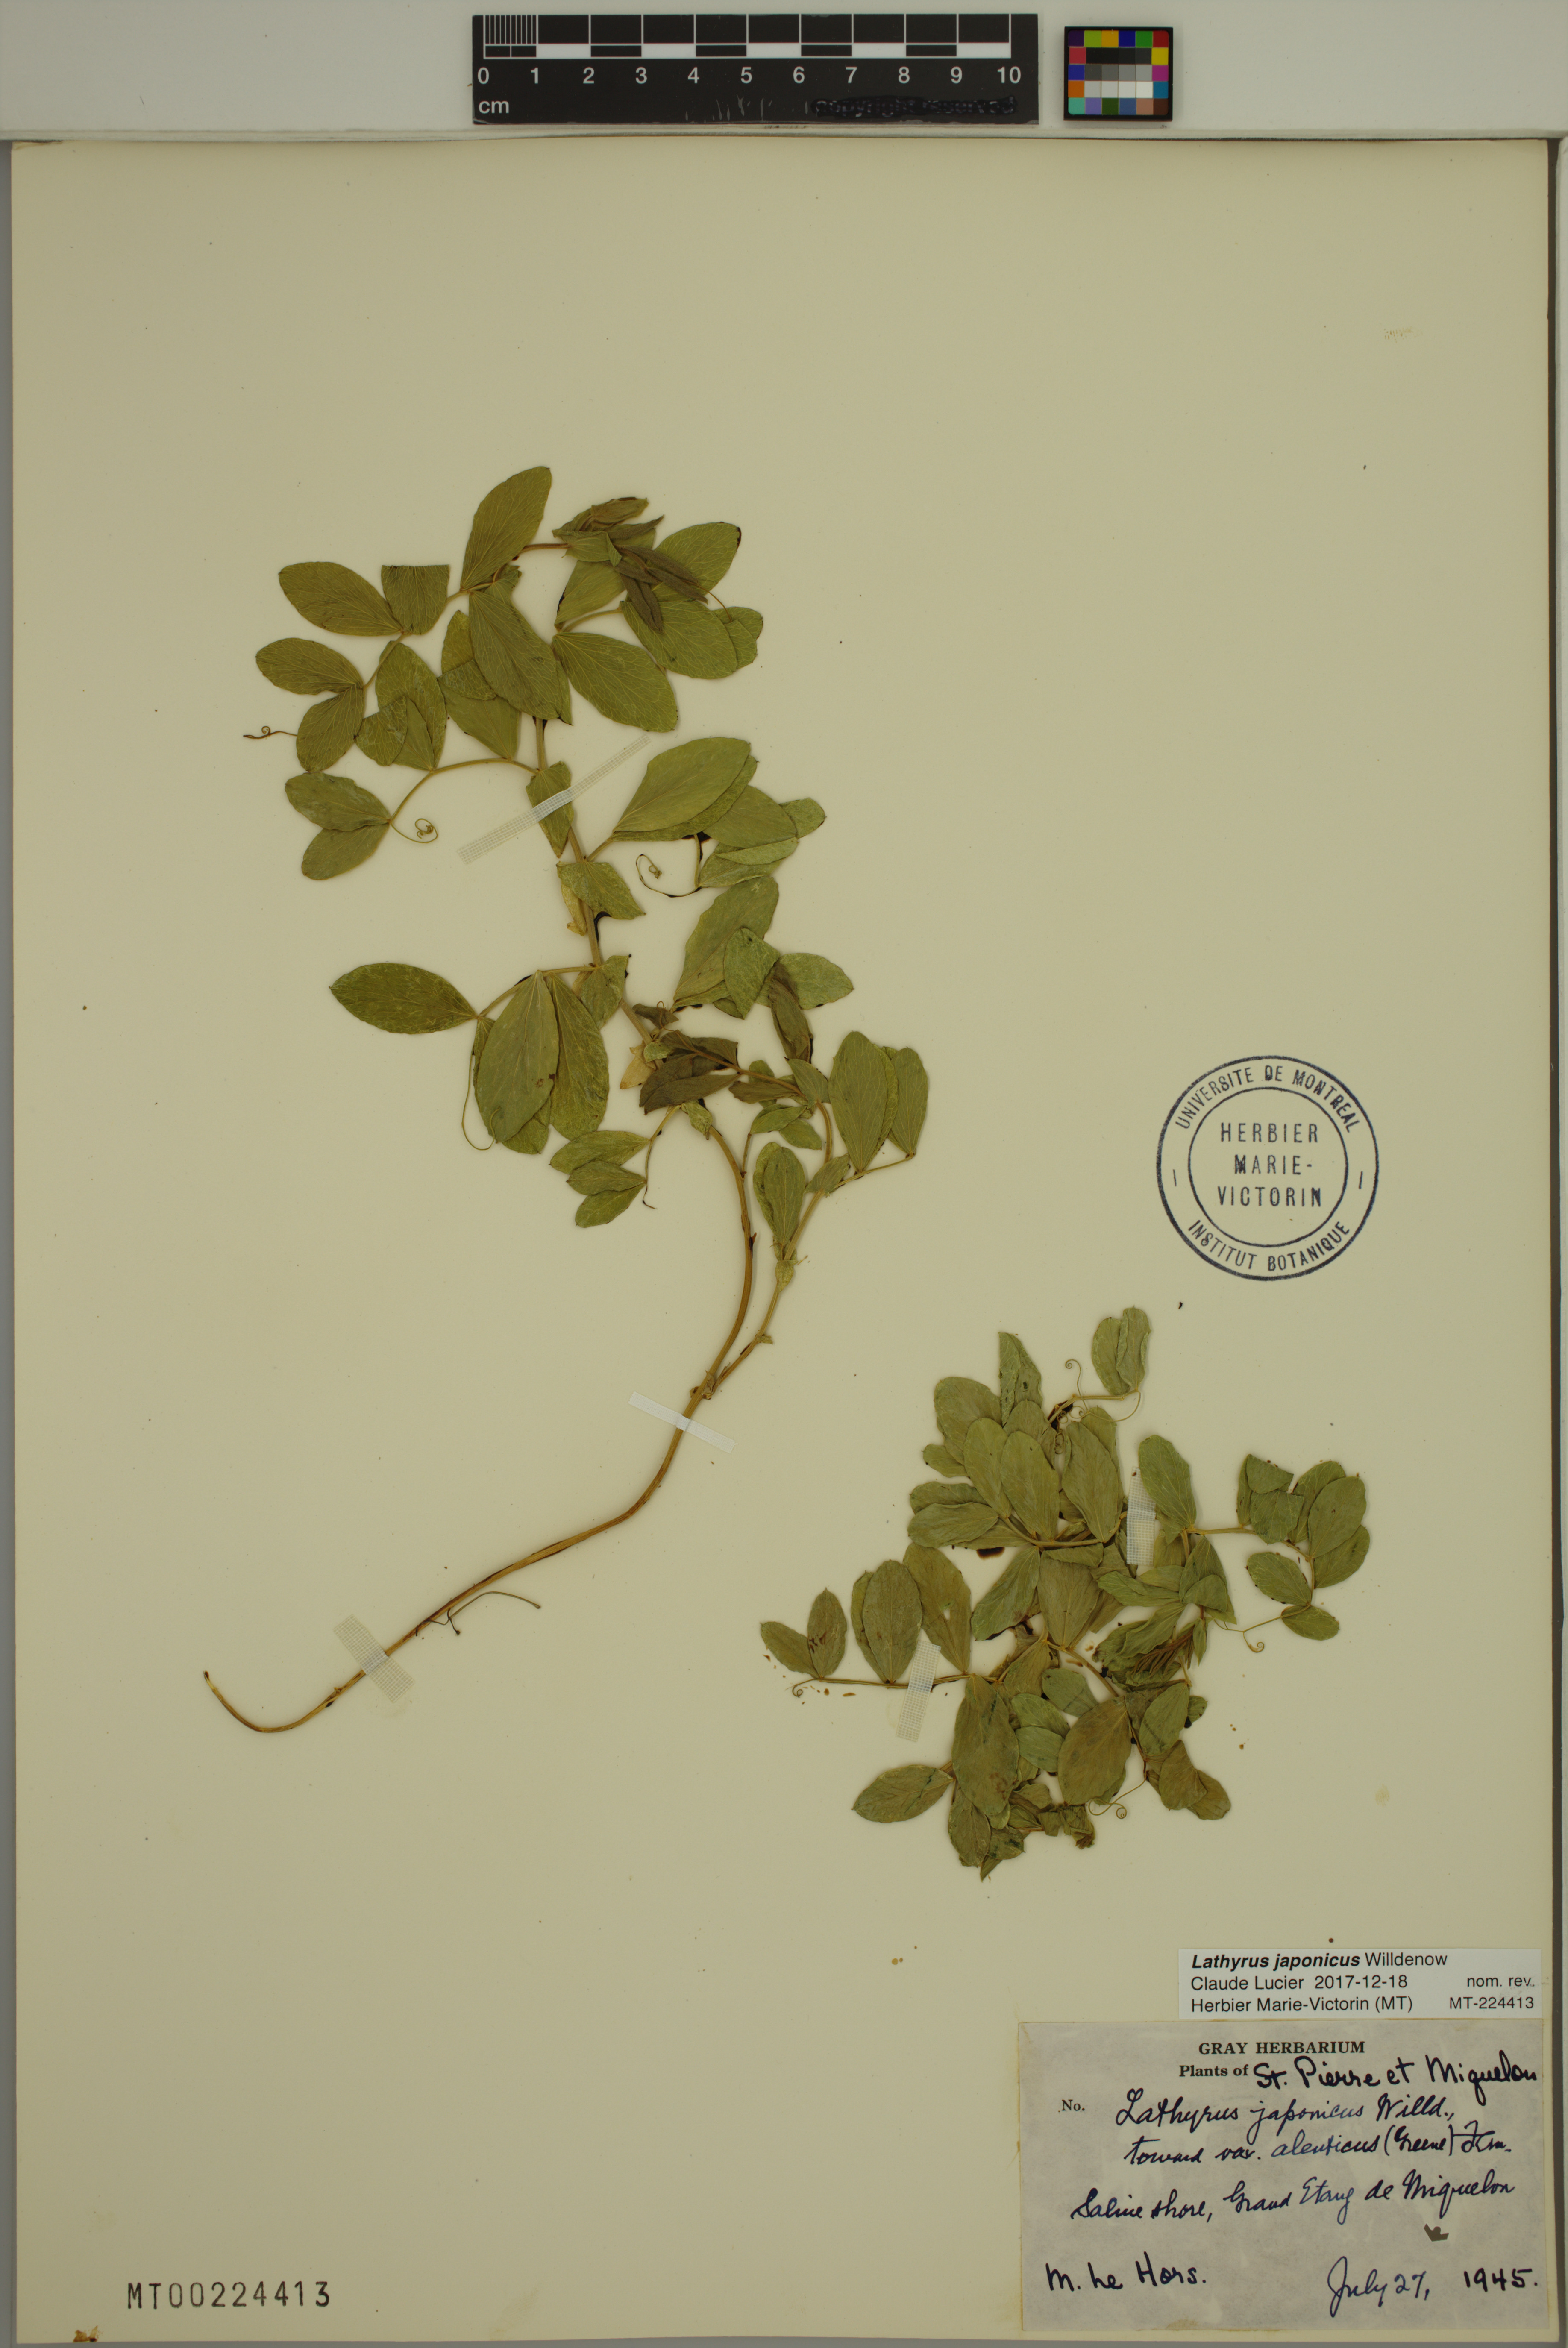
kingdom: Plantae
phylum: Tracheophyta
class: Magnoliopsida
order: Fabales
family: Fabaceae
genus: Lathyrus
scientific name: Lathyrus japonicus
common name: Sea pea
